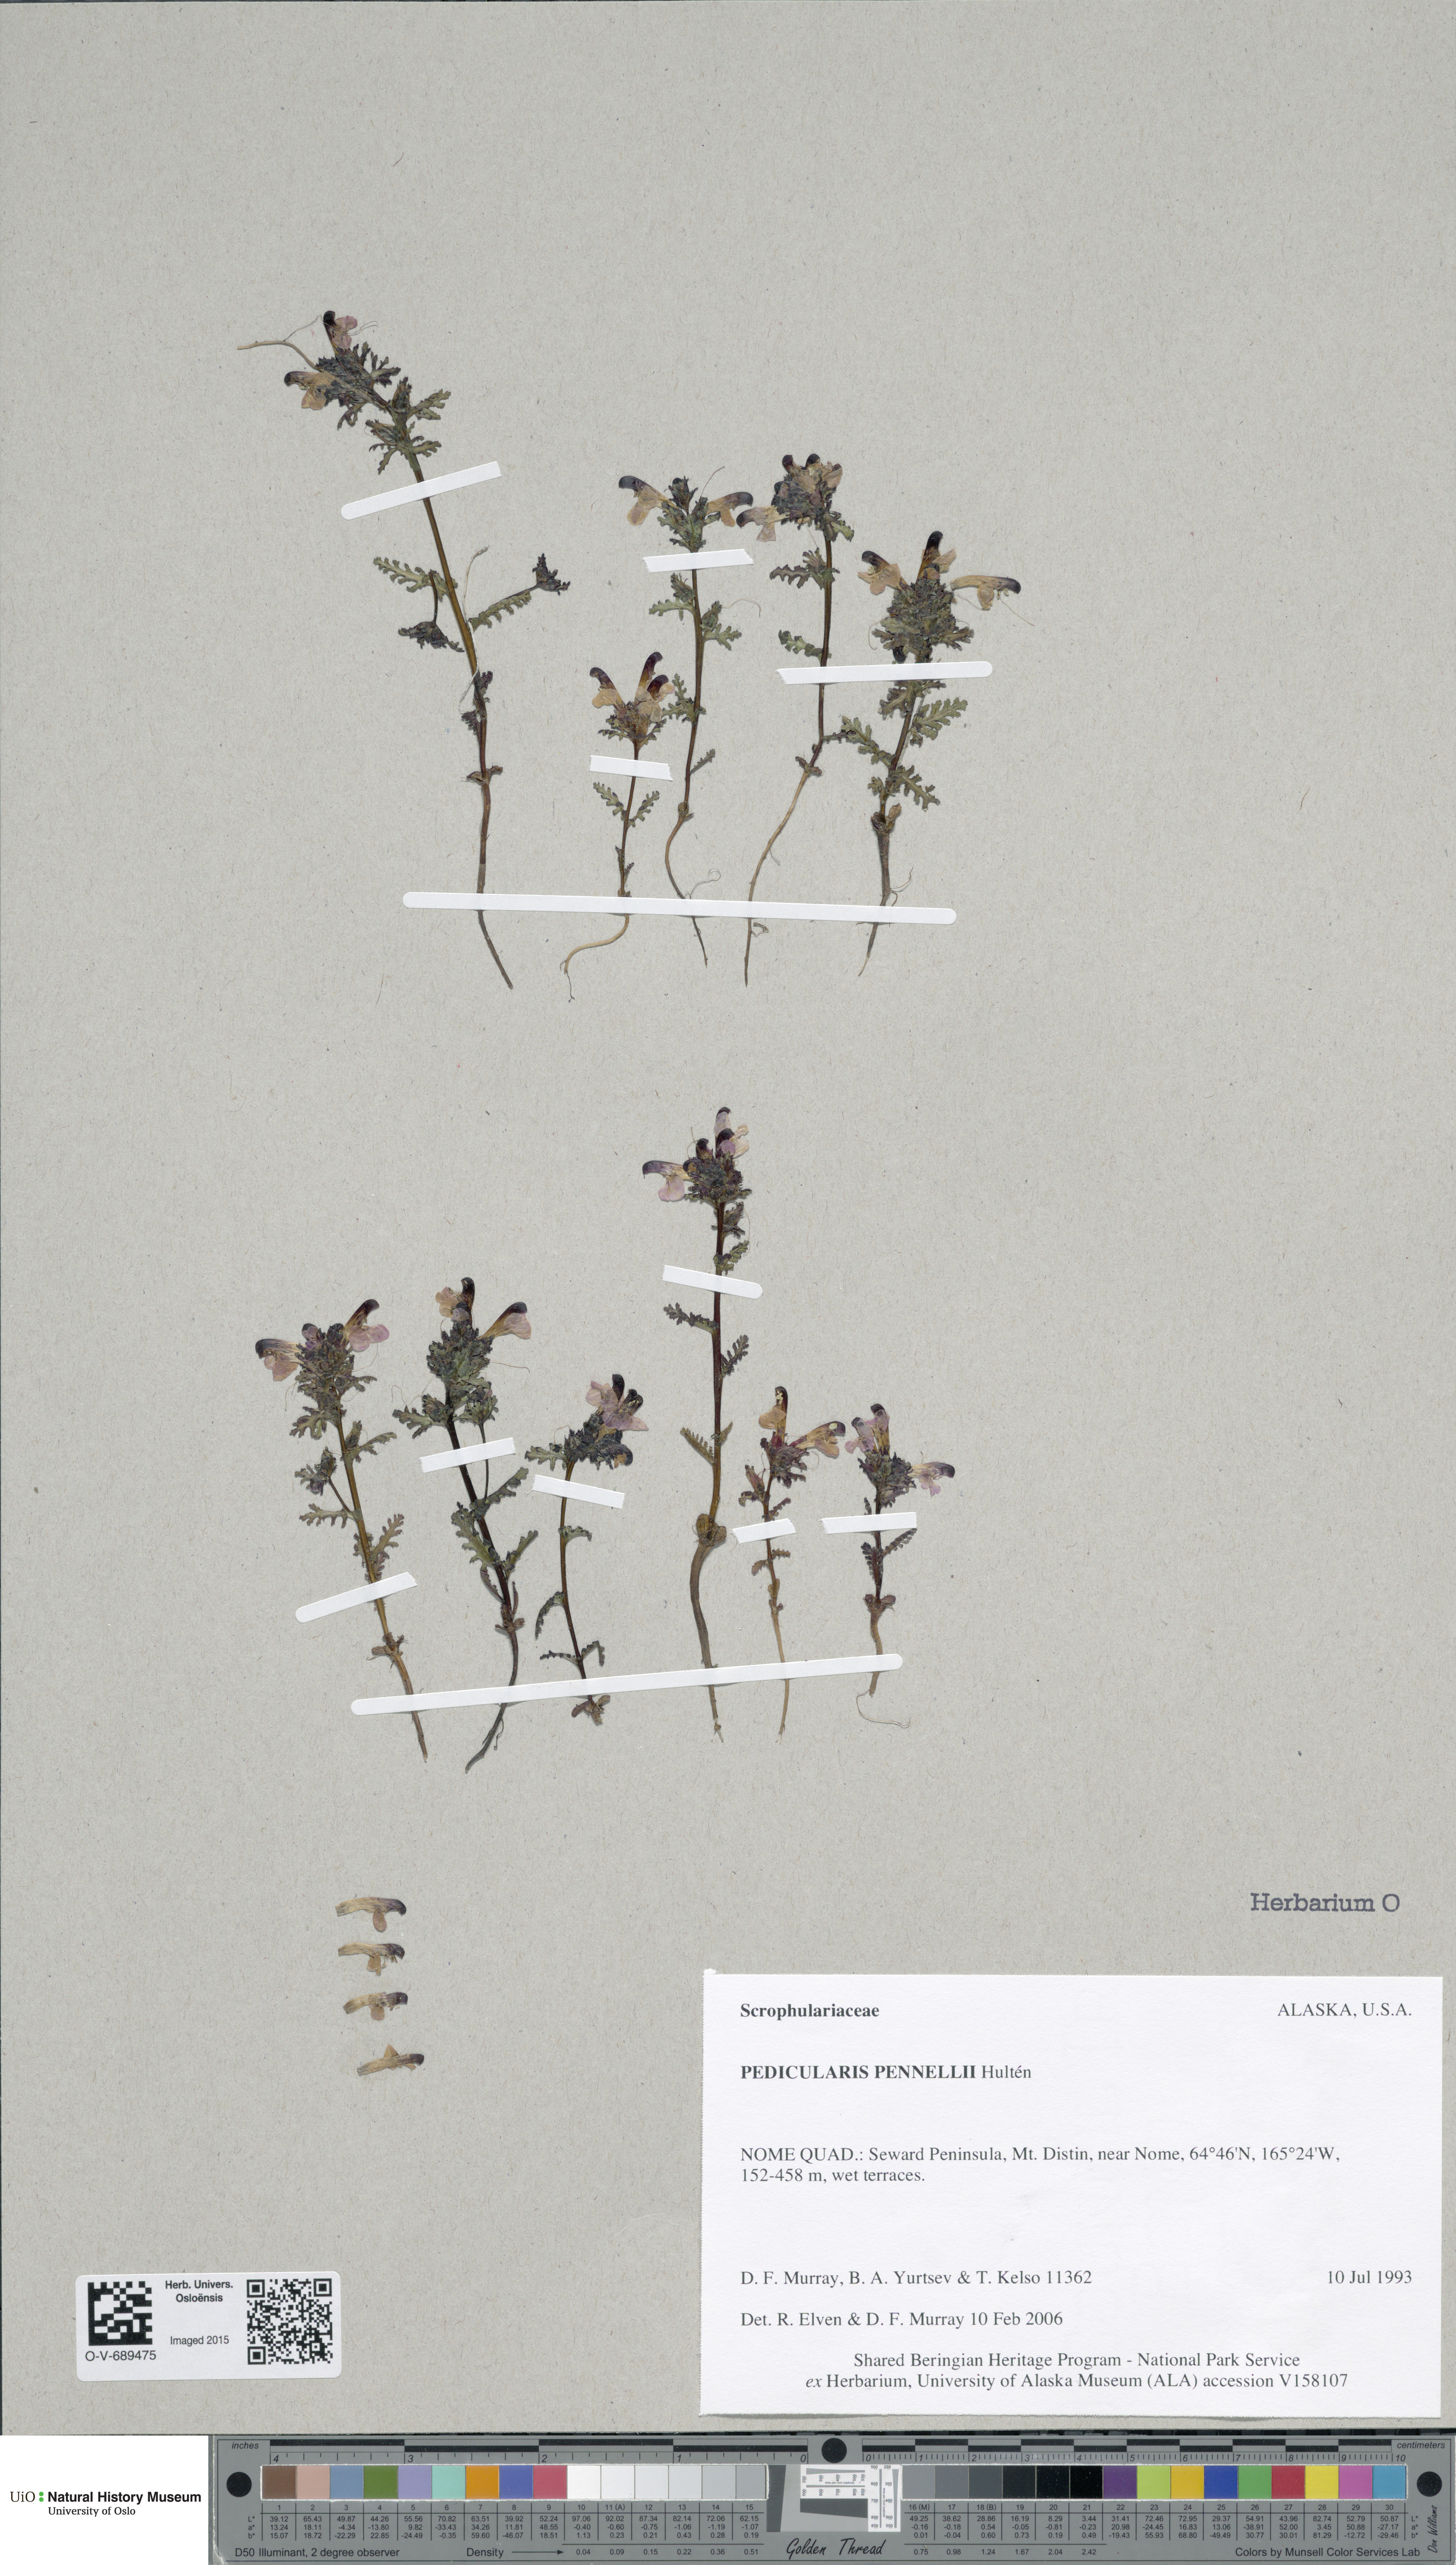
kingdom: Plantae
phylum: Tracheophyta
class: Magnoliopsida
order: Lamiales
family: Orobanchaceae
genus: Pedicularis
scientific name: Pedicularis pennellii
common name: Pennell's lousewort
